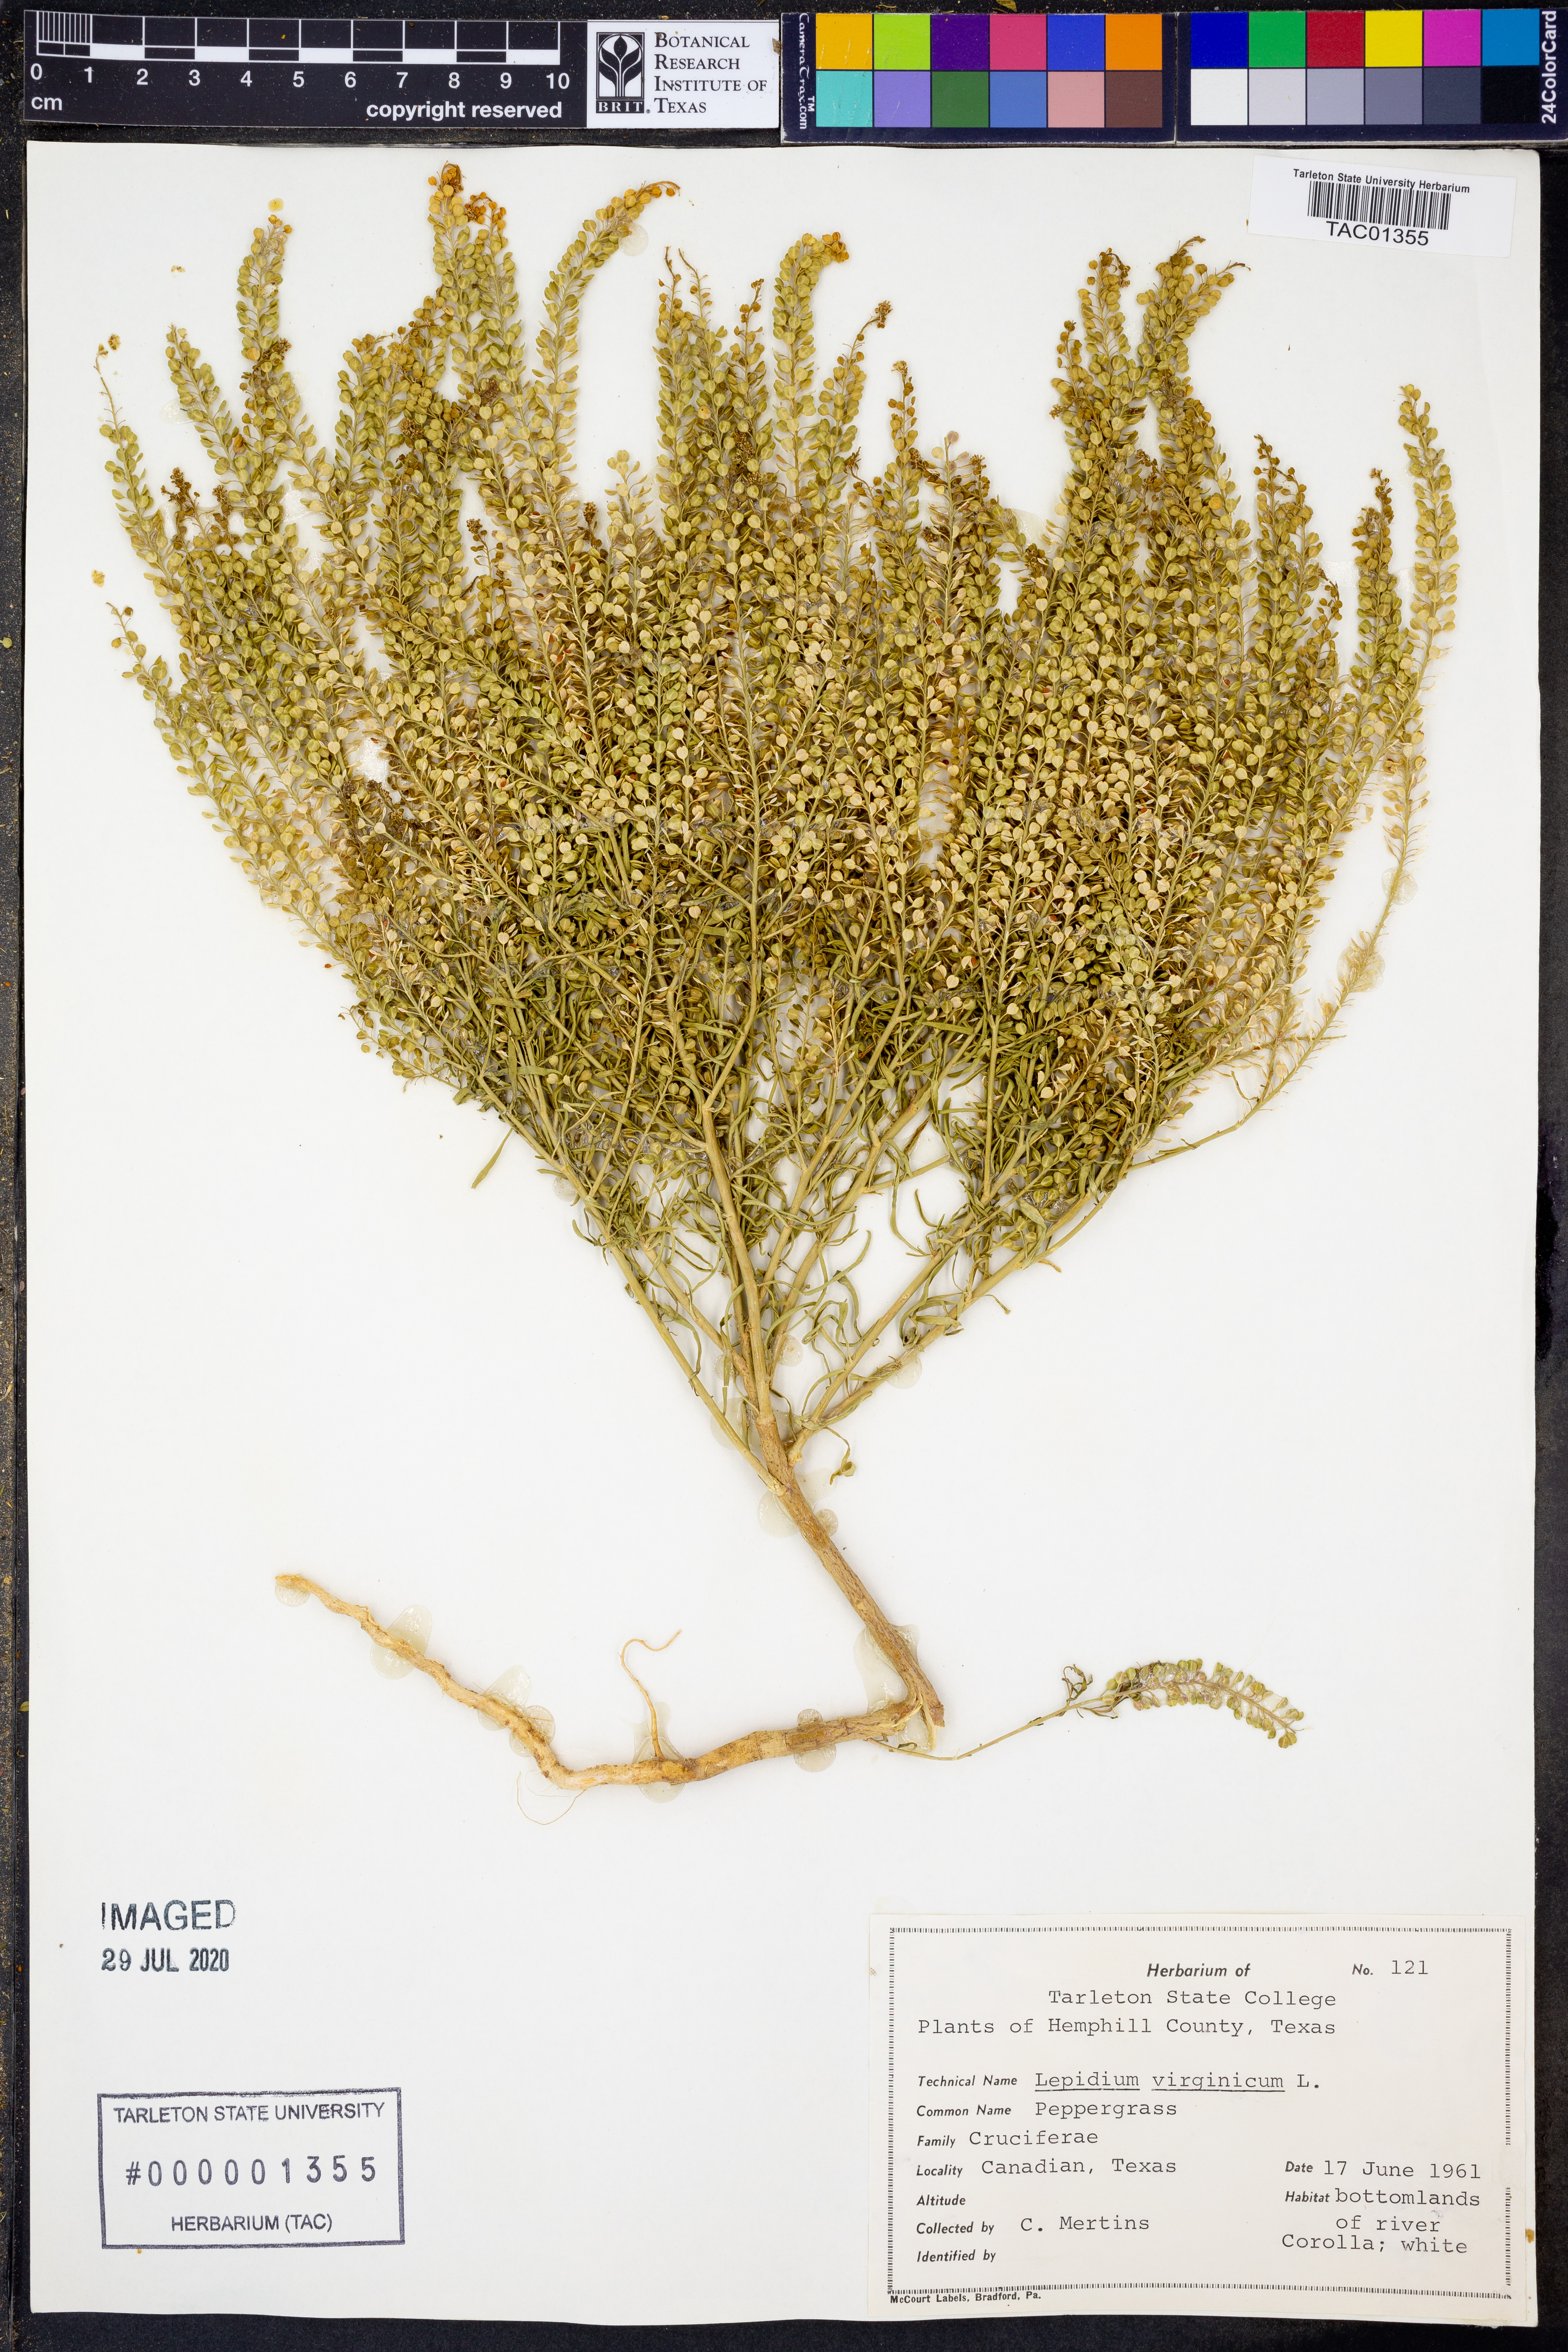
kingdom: Plantae
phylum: Tracheophyta
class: Magnoliopsida
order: Brassicales
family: Brassicaceae
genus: Lepidium
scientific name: Lepidium virginicum
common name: Least pepperwort
